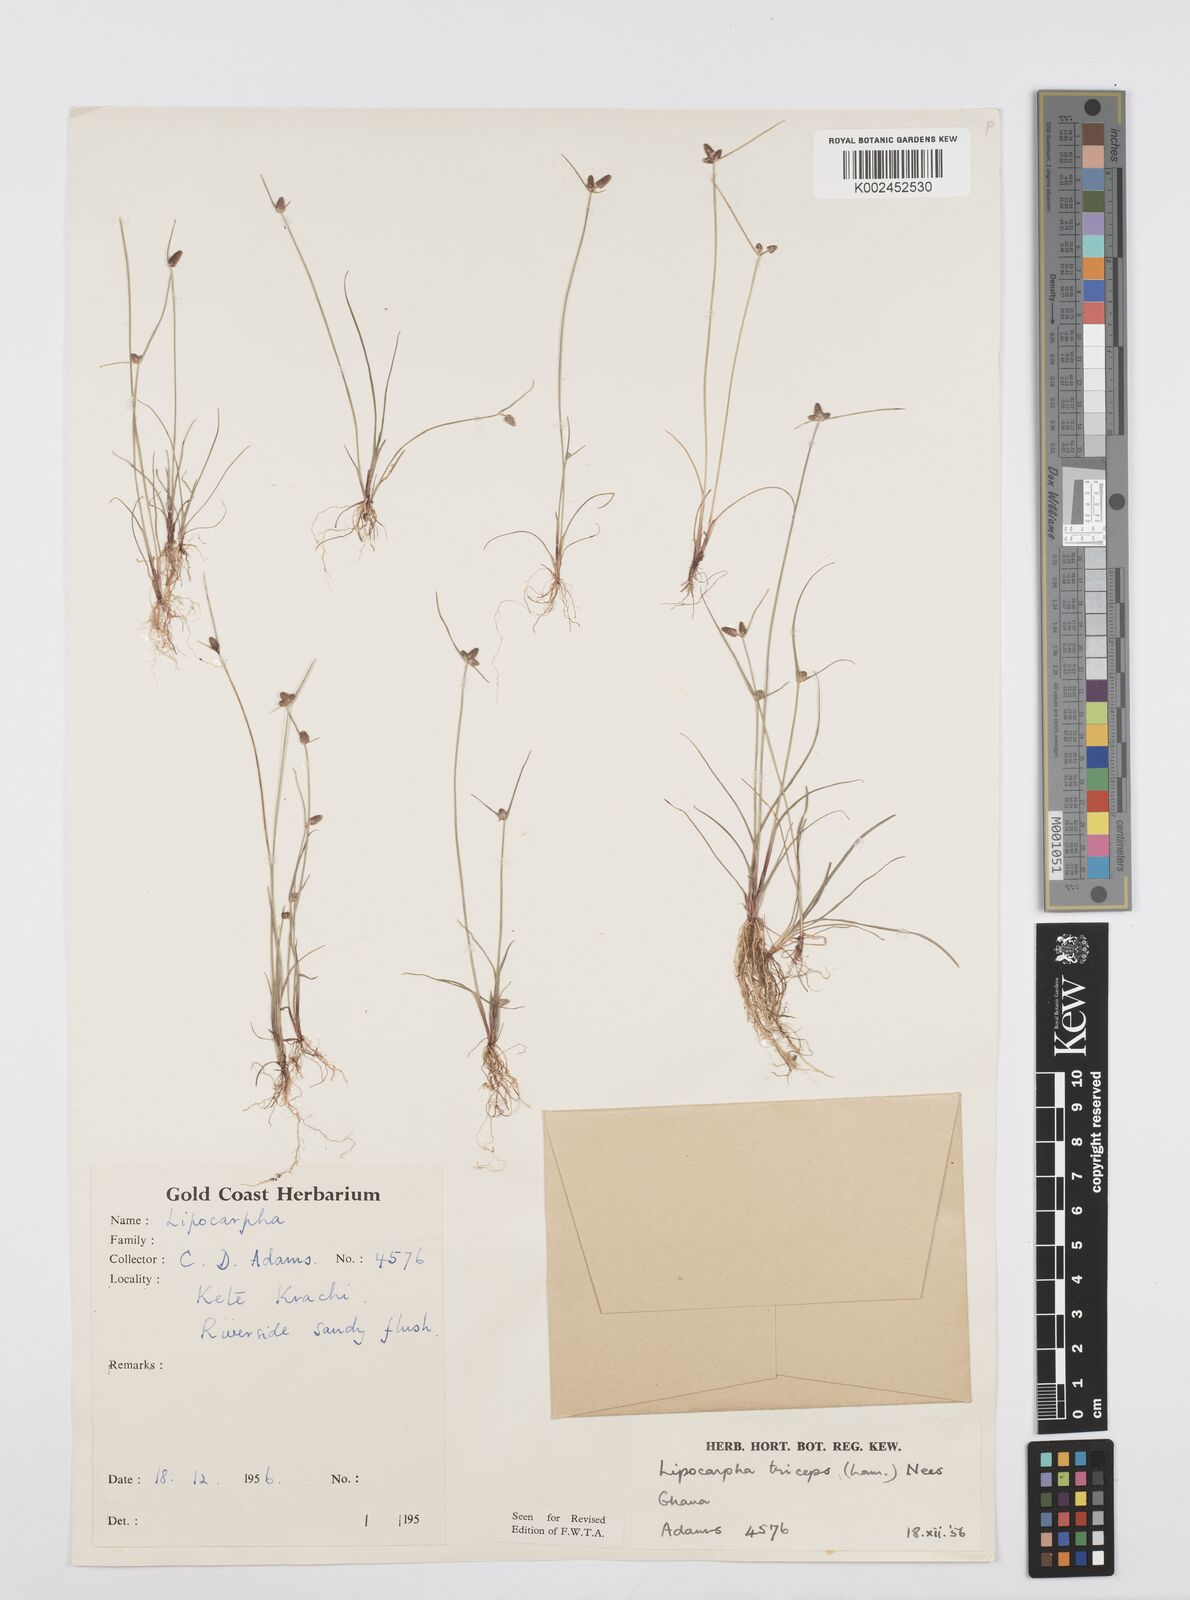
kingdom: Plantae
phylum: Tracheophyta
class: Liliopsida
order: Poales
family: Cyperaceae
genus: Cyperus
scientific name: Cyperus filiformis
